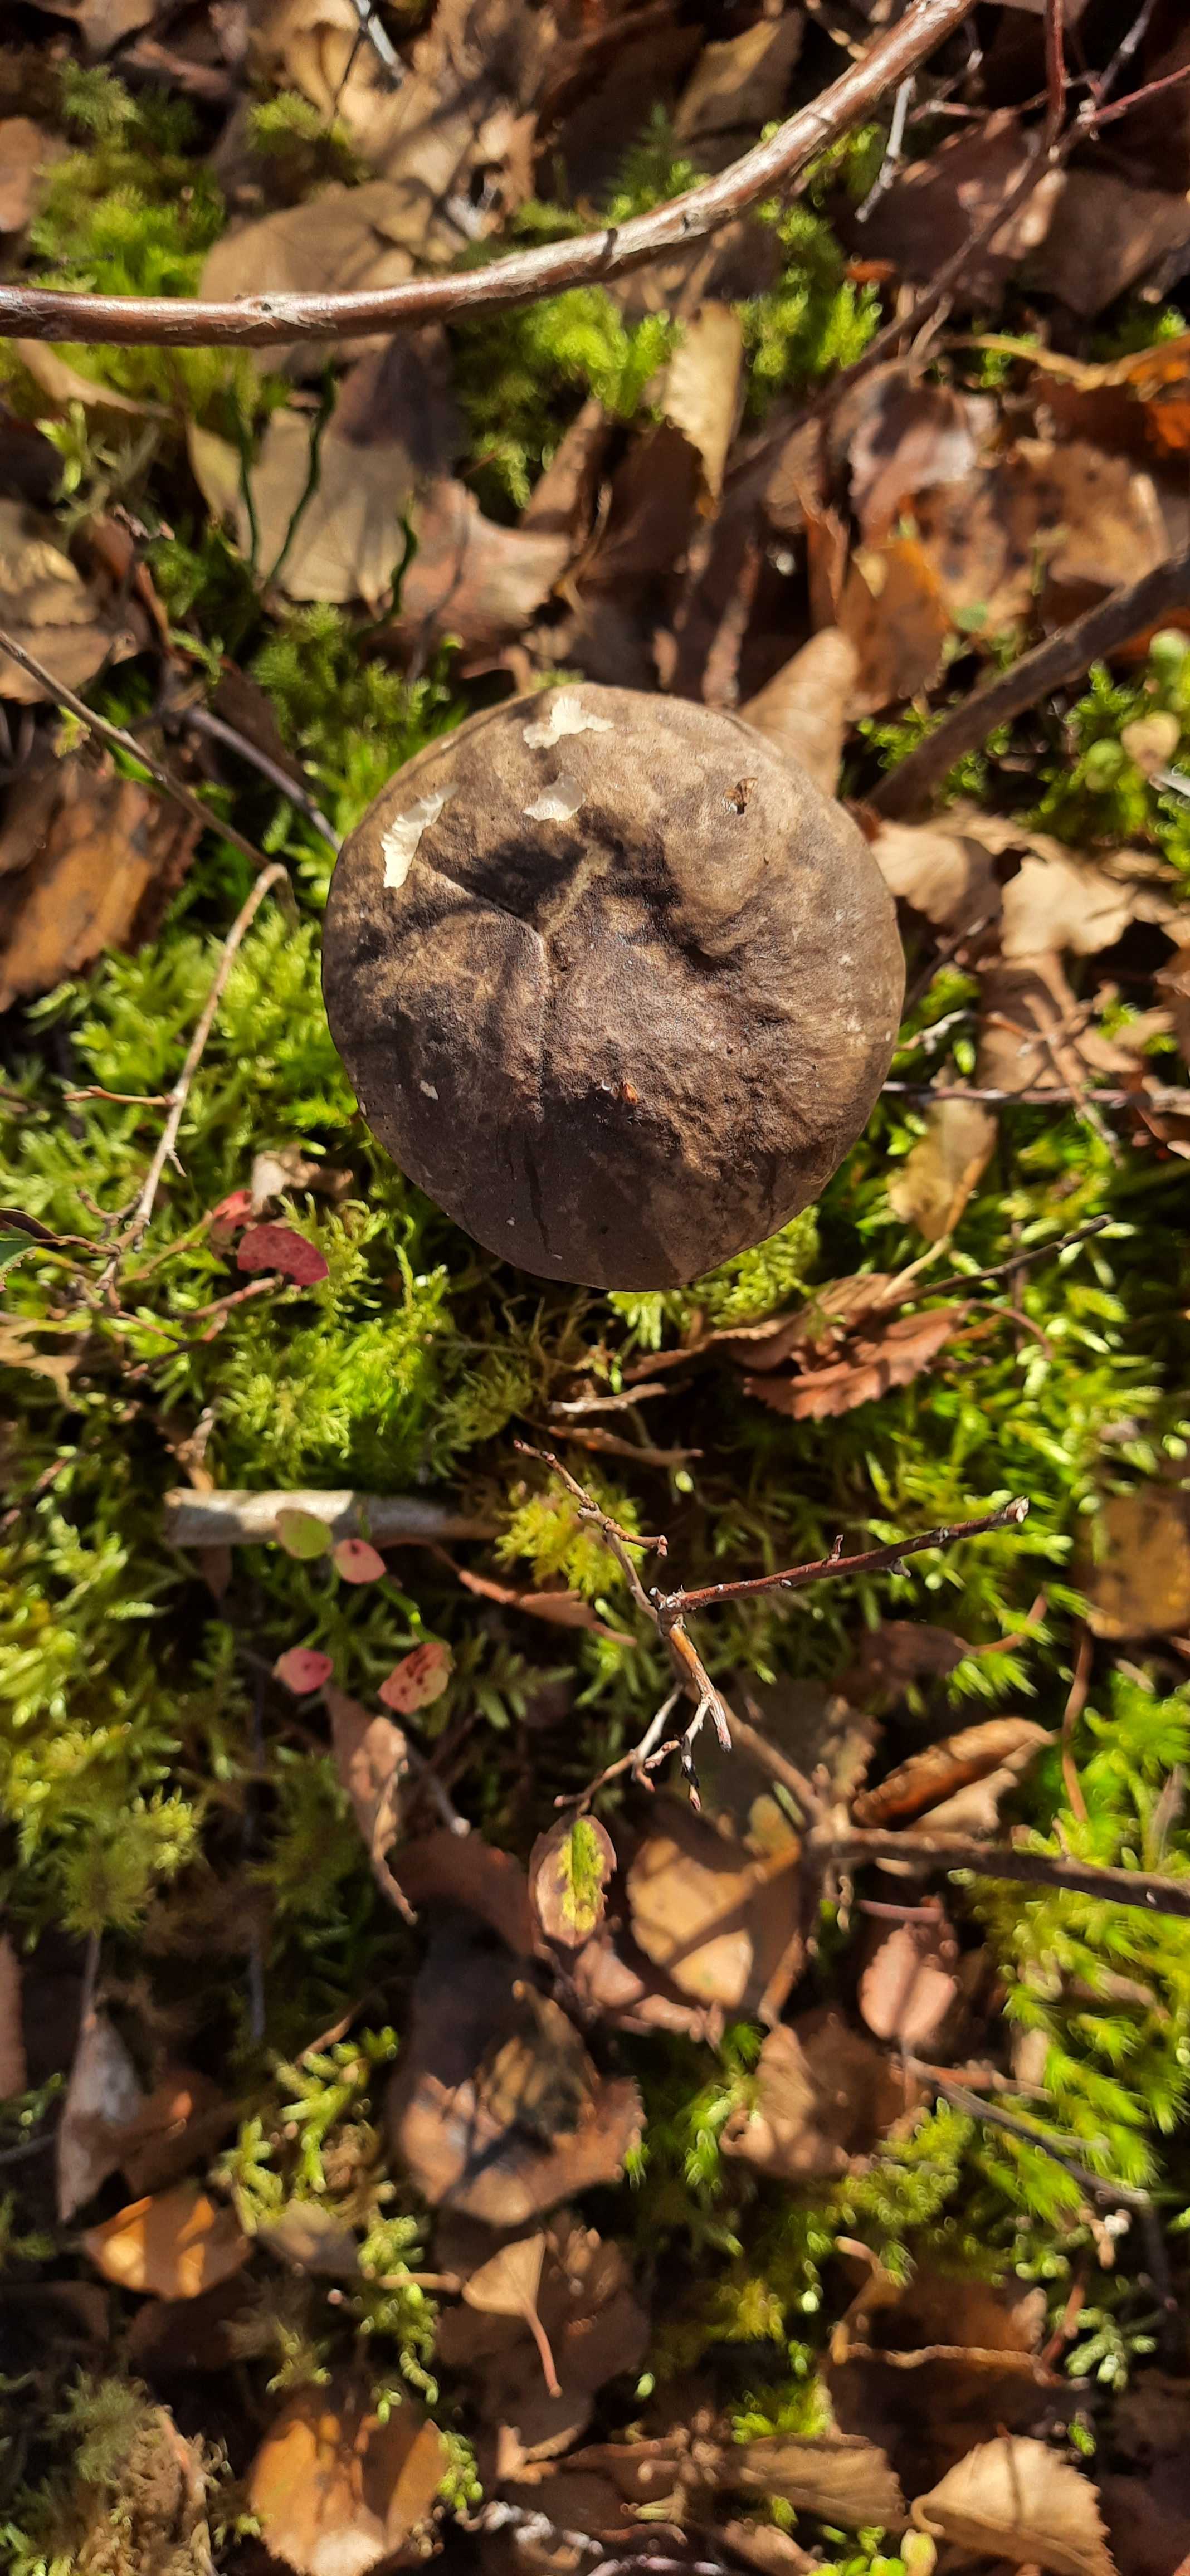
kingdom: Fungi
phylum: Basidiomycota
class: Agaricomycetes
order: Boletales
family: Boletaceae
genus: Leccinum
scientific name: Leccinum variicolor
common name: flammet skælrørhat
